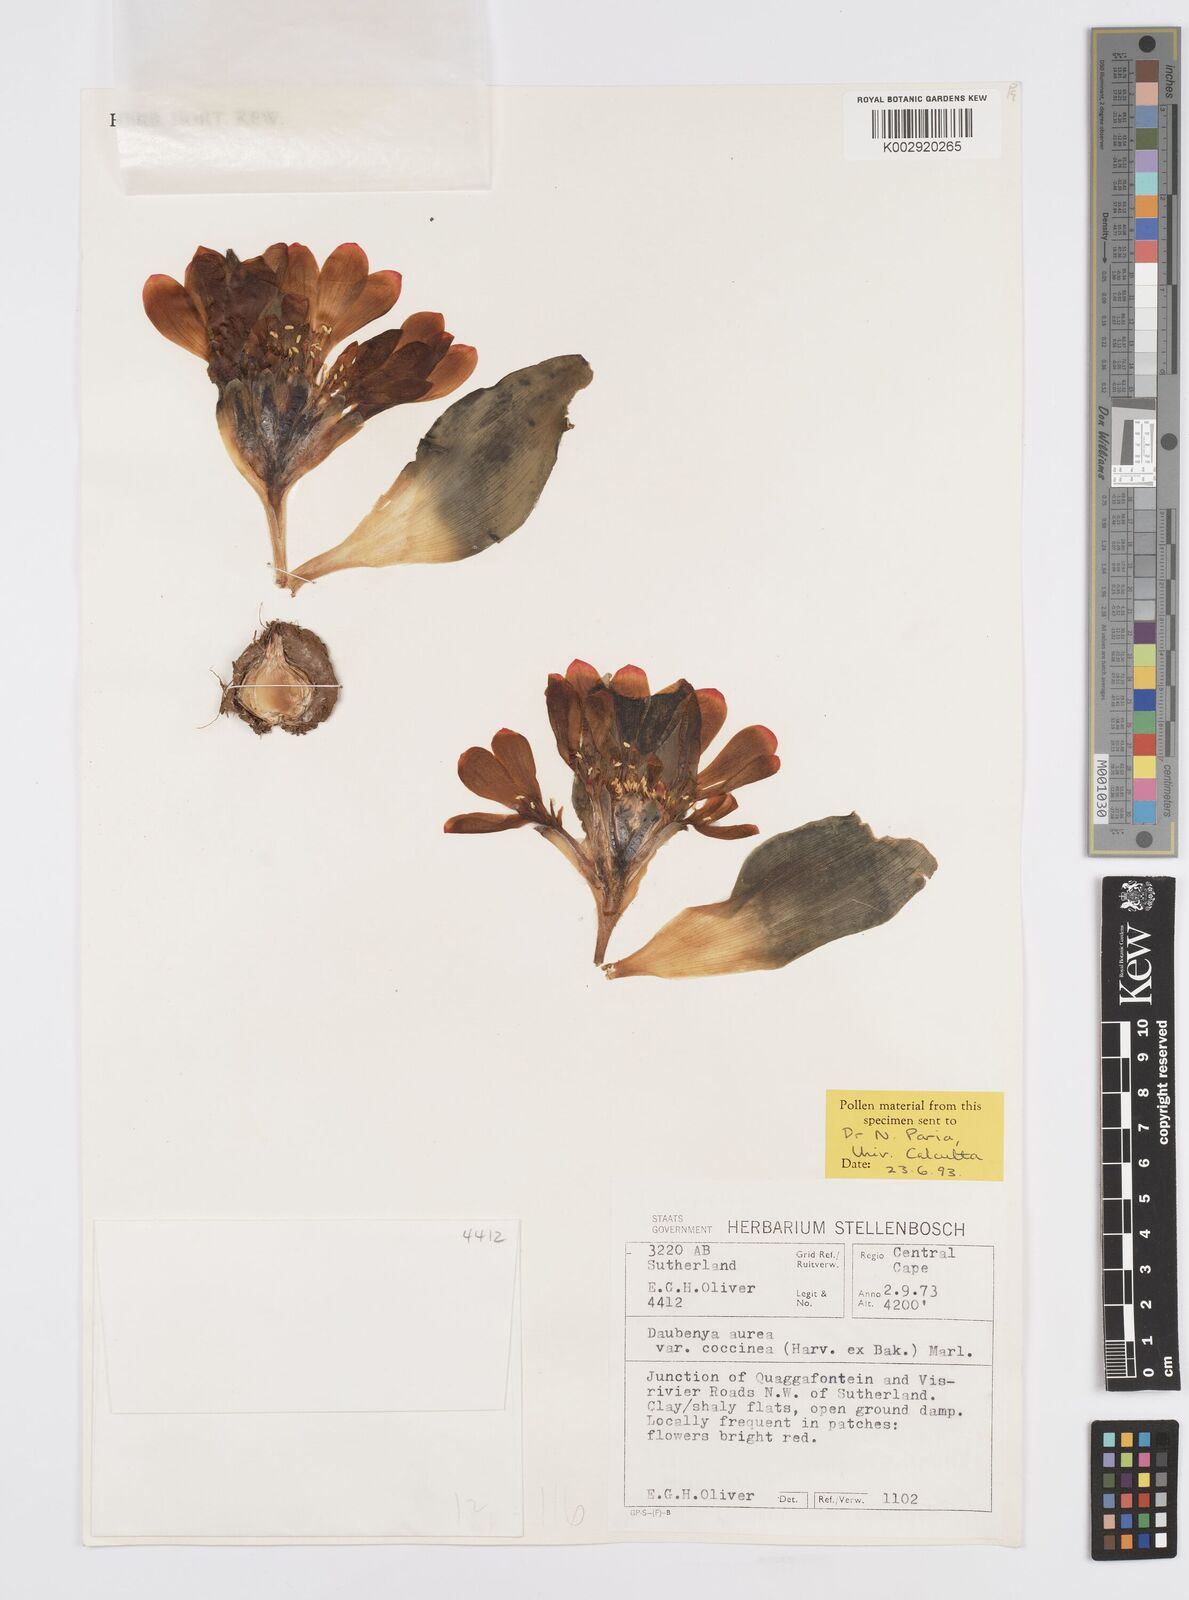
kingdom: Plantae
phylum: Tracheophyta
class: Liliopsida
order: Asparagales
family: Asparagaceae
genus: Daubenya
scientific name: Daubenya aurea
